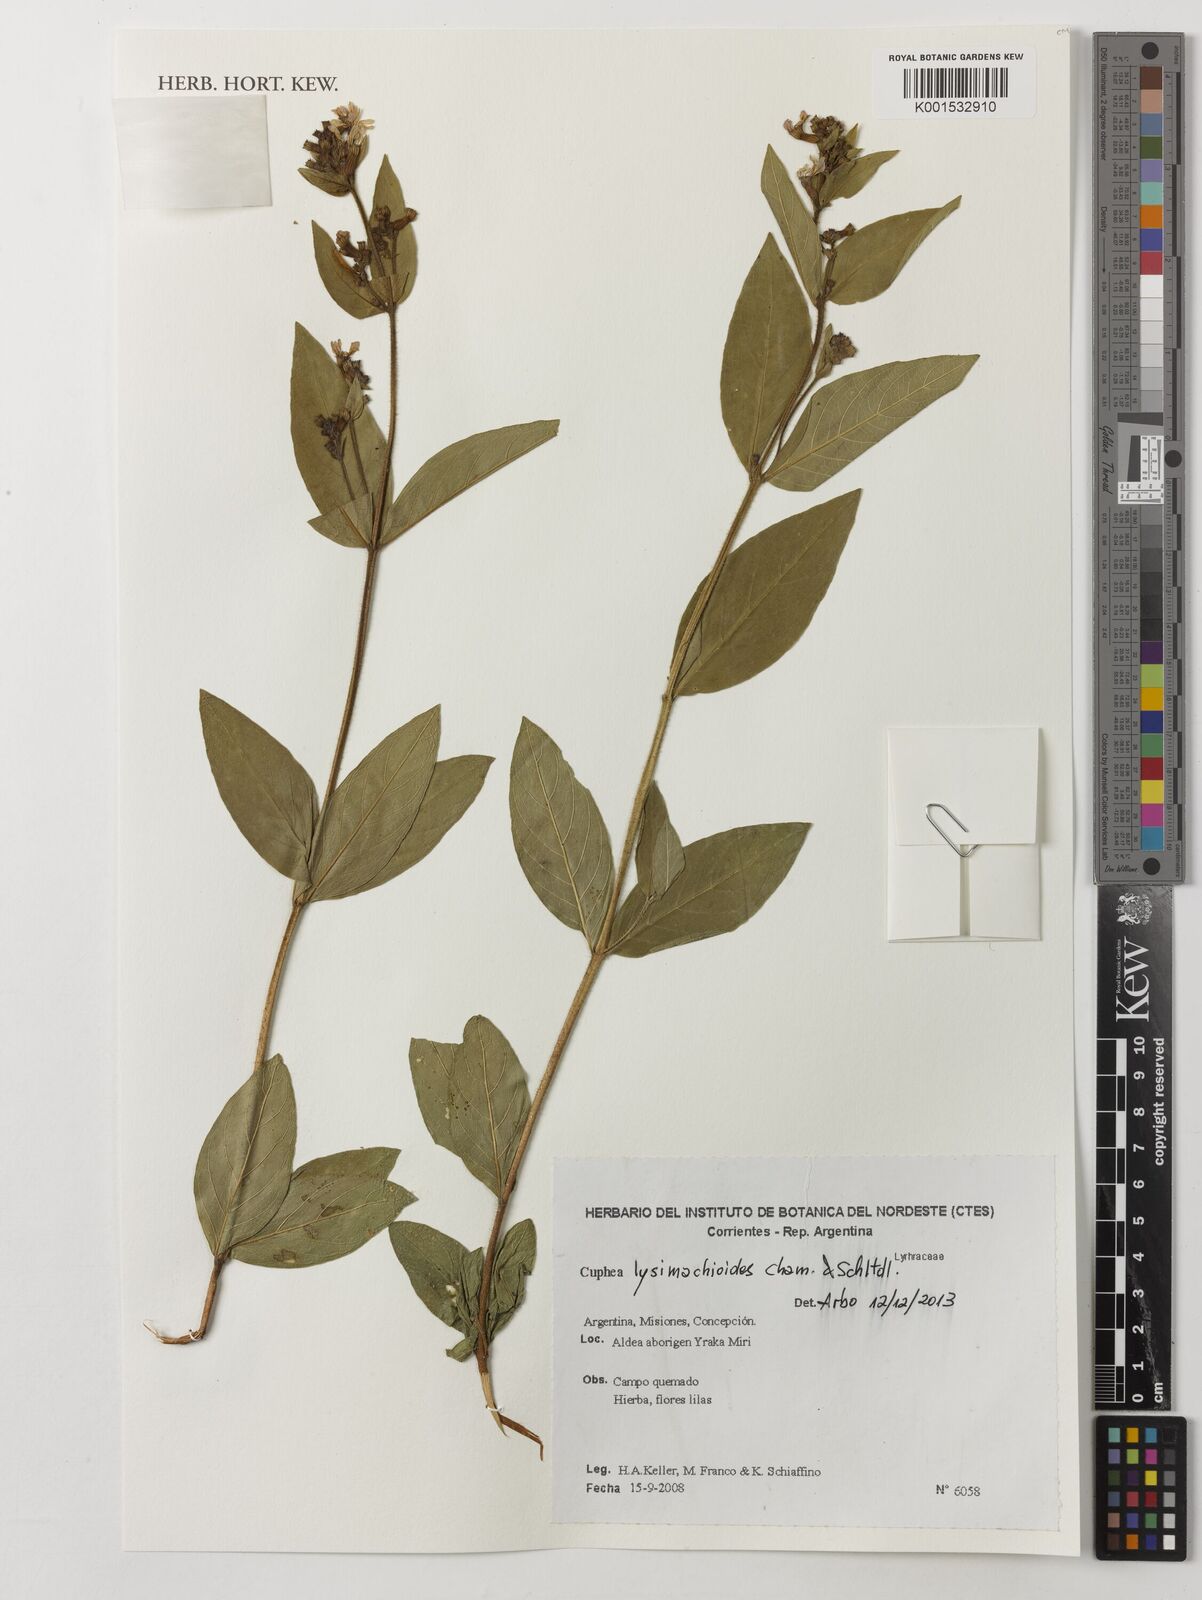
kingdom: Plantae
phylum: Tracheophyta
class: Magnoliopsida
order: Myrtales
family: Lythraceae
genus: Cuphea
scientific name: Cuphea lysimachioides
